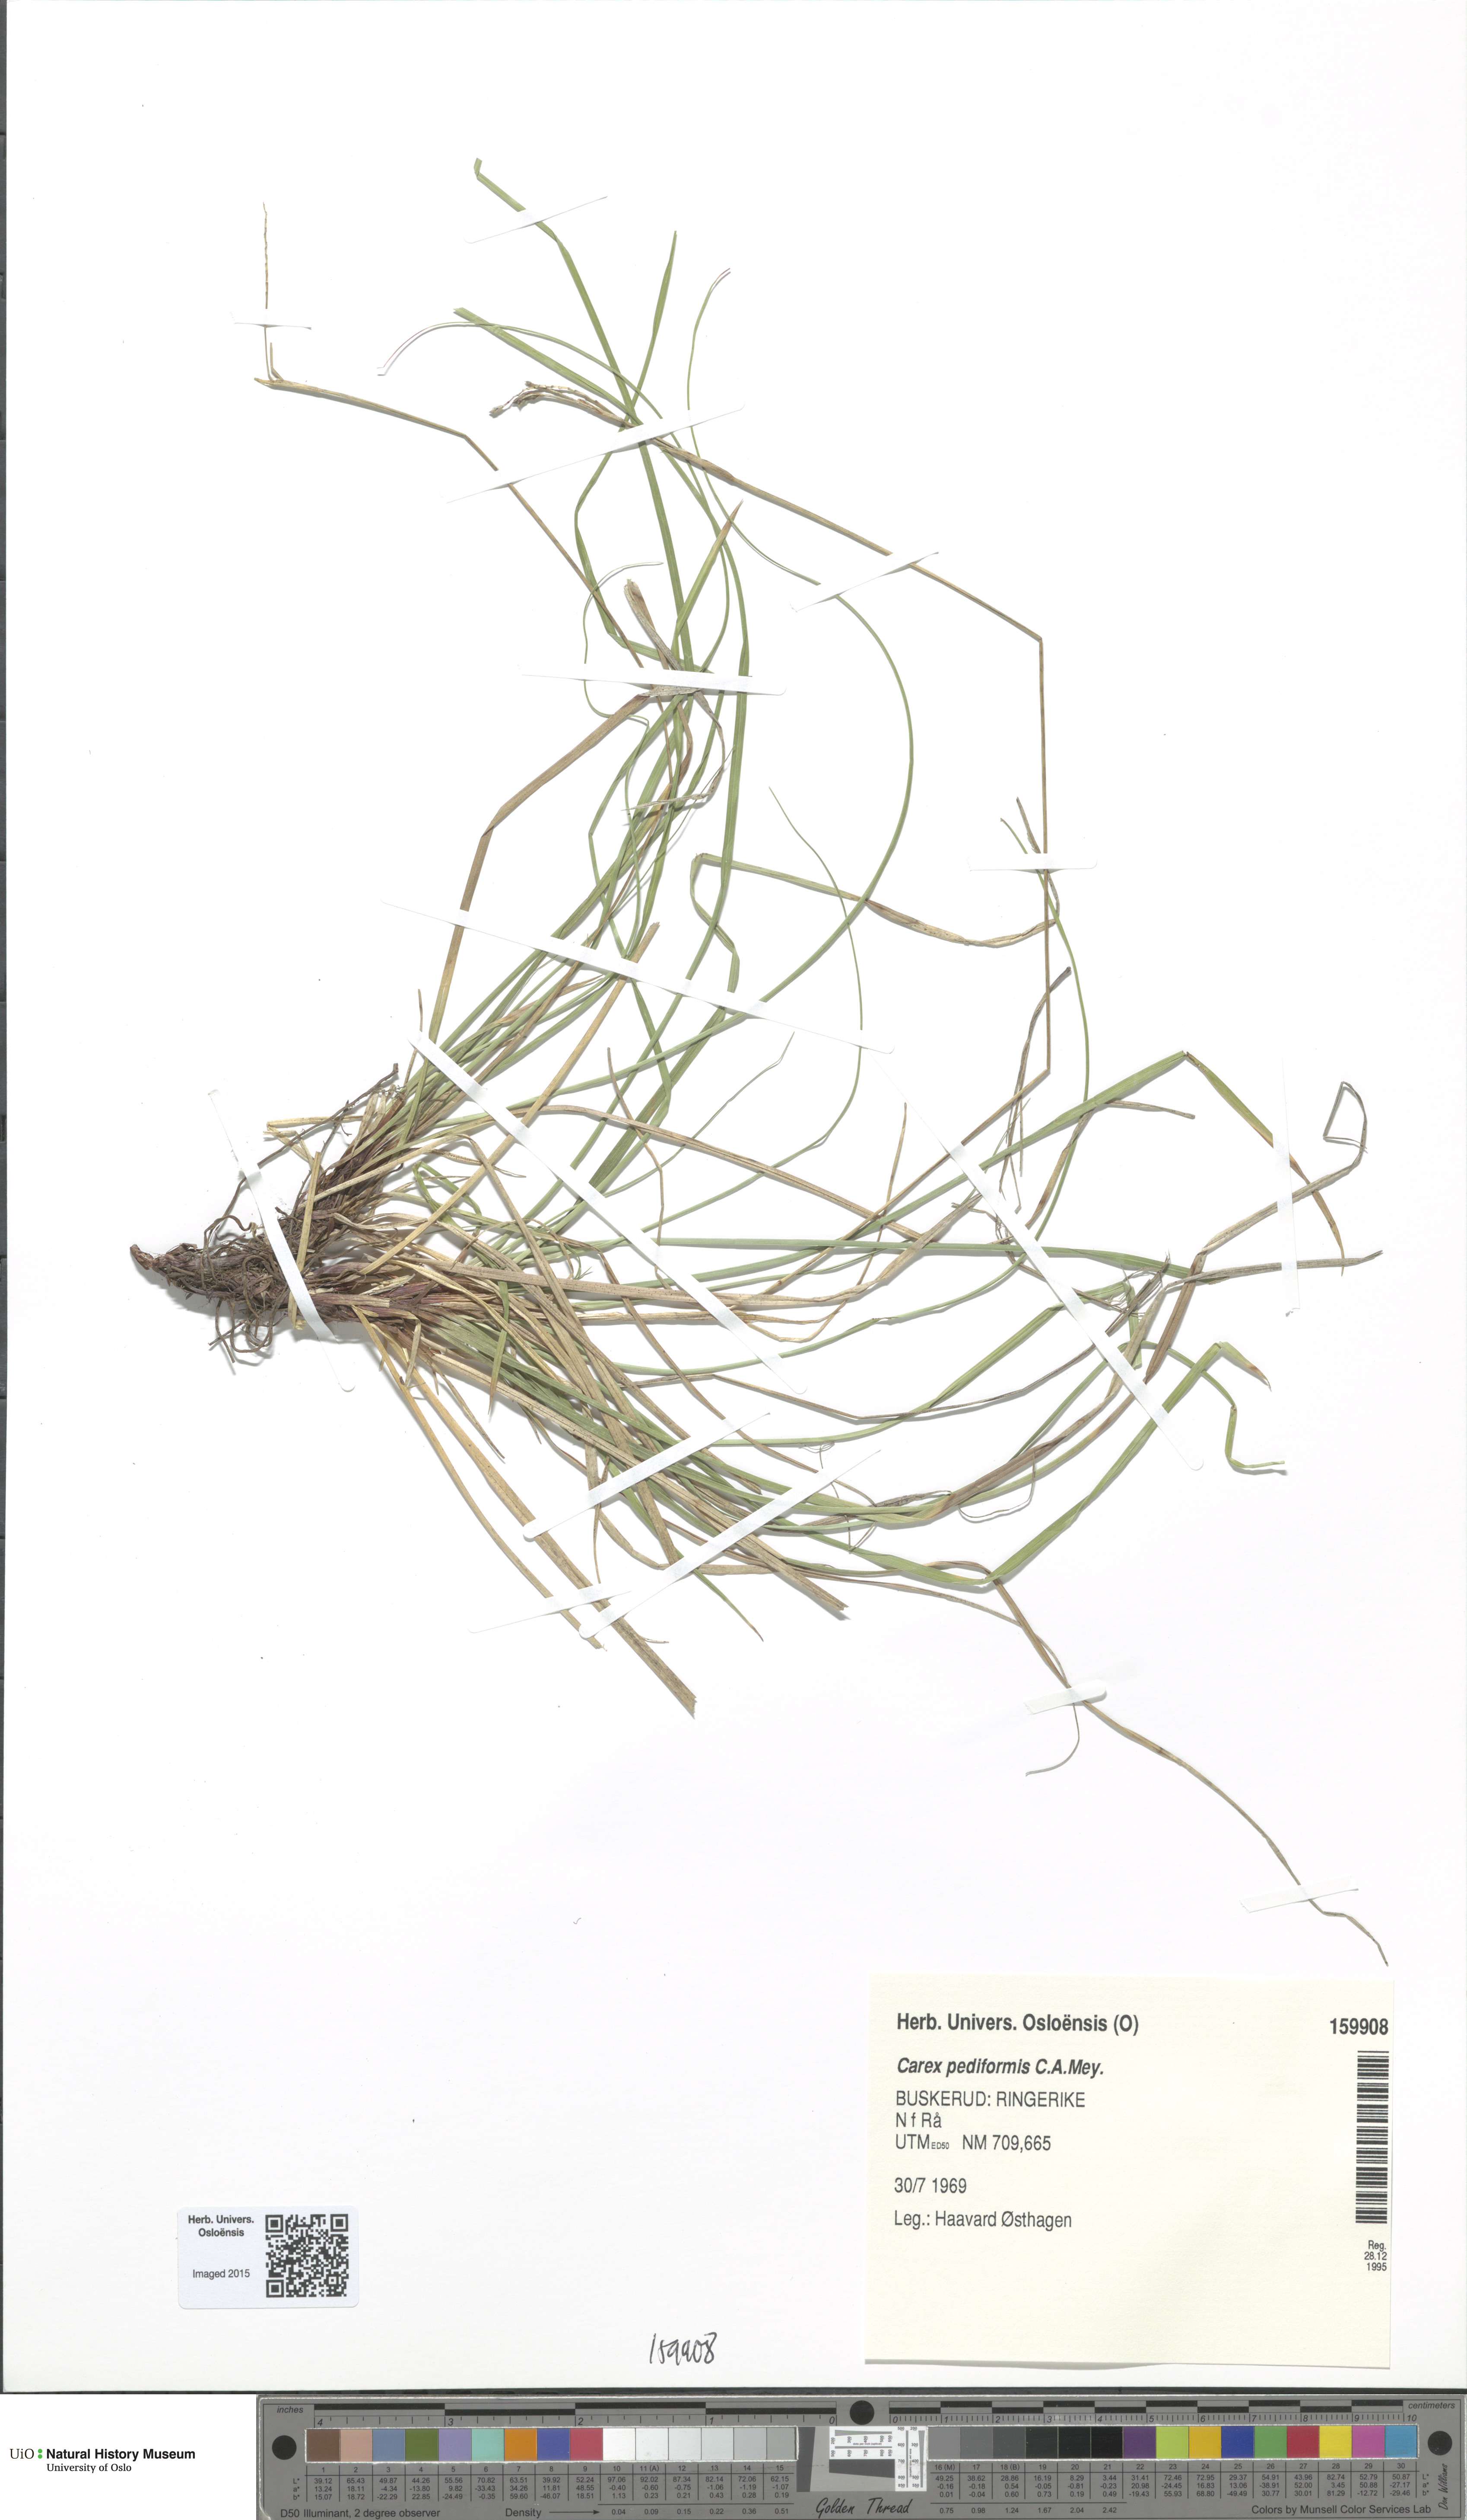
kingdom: Plantae
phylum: Tracheophyta
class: Liliopsida
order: Poales
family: Cyperaceae
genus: Carex
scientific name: Carex rhizina
